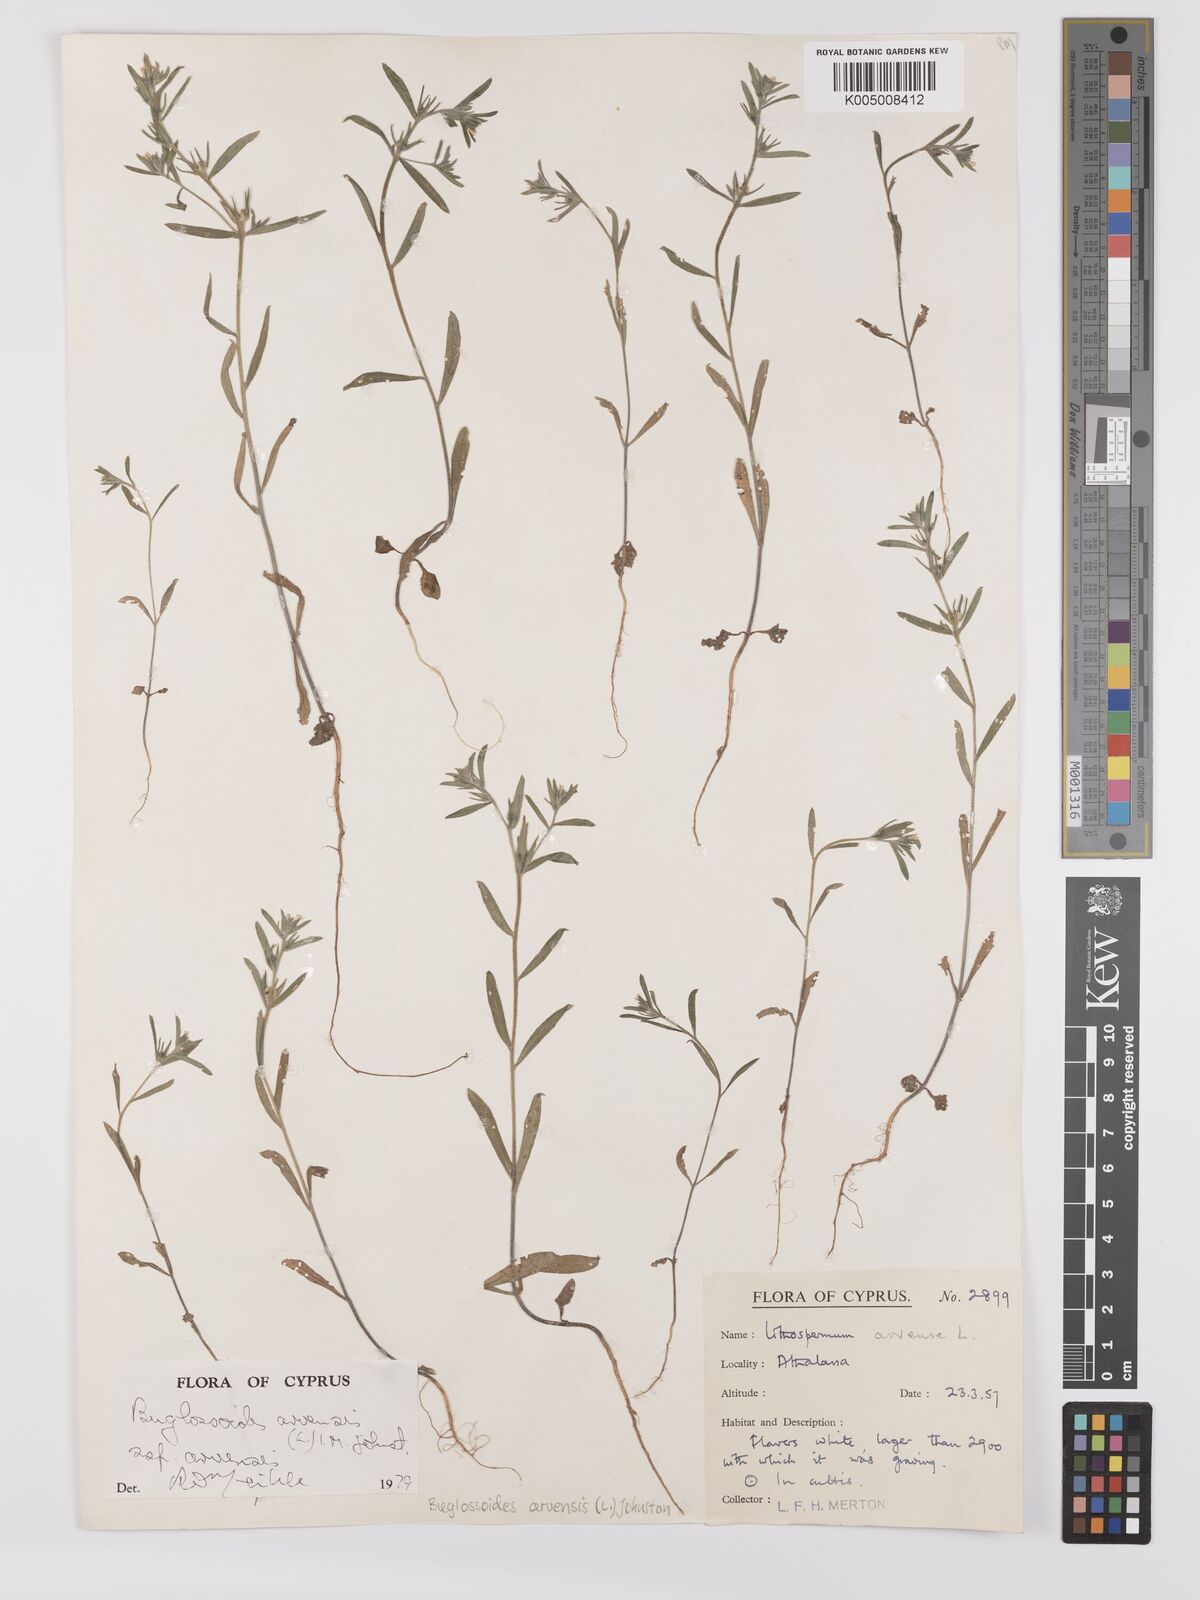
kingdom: Plantae
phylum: Tracheophyta
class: Magnoliopsida
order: Boraginales
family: Boraginaceae
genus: Buglossoides
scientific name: Buglossoides arvensis
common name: Corn gromwell
